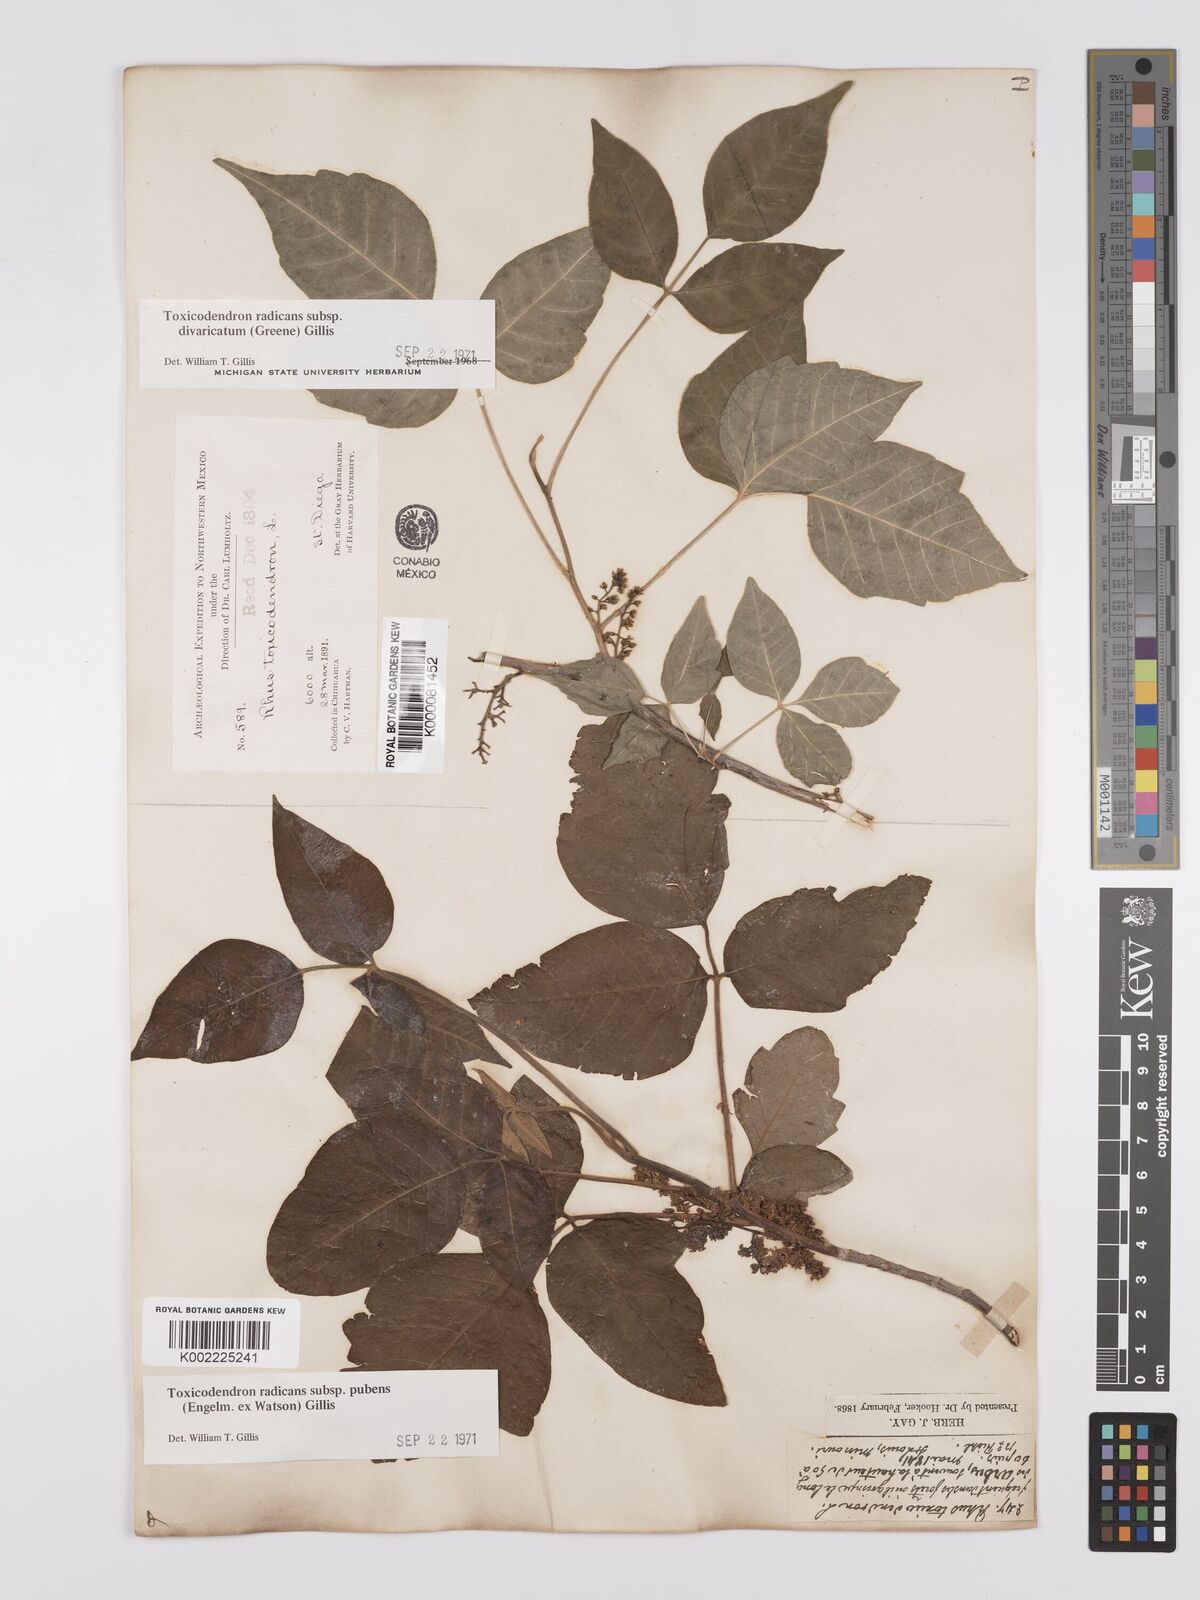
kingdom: Plantae
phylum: Tracheophyta
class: Magnoliopsida
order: Sapindales
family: Anacardiaceae
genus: Toxicodendron
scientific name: Toxicodendron radicans
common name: Poison ivy
